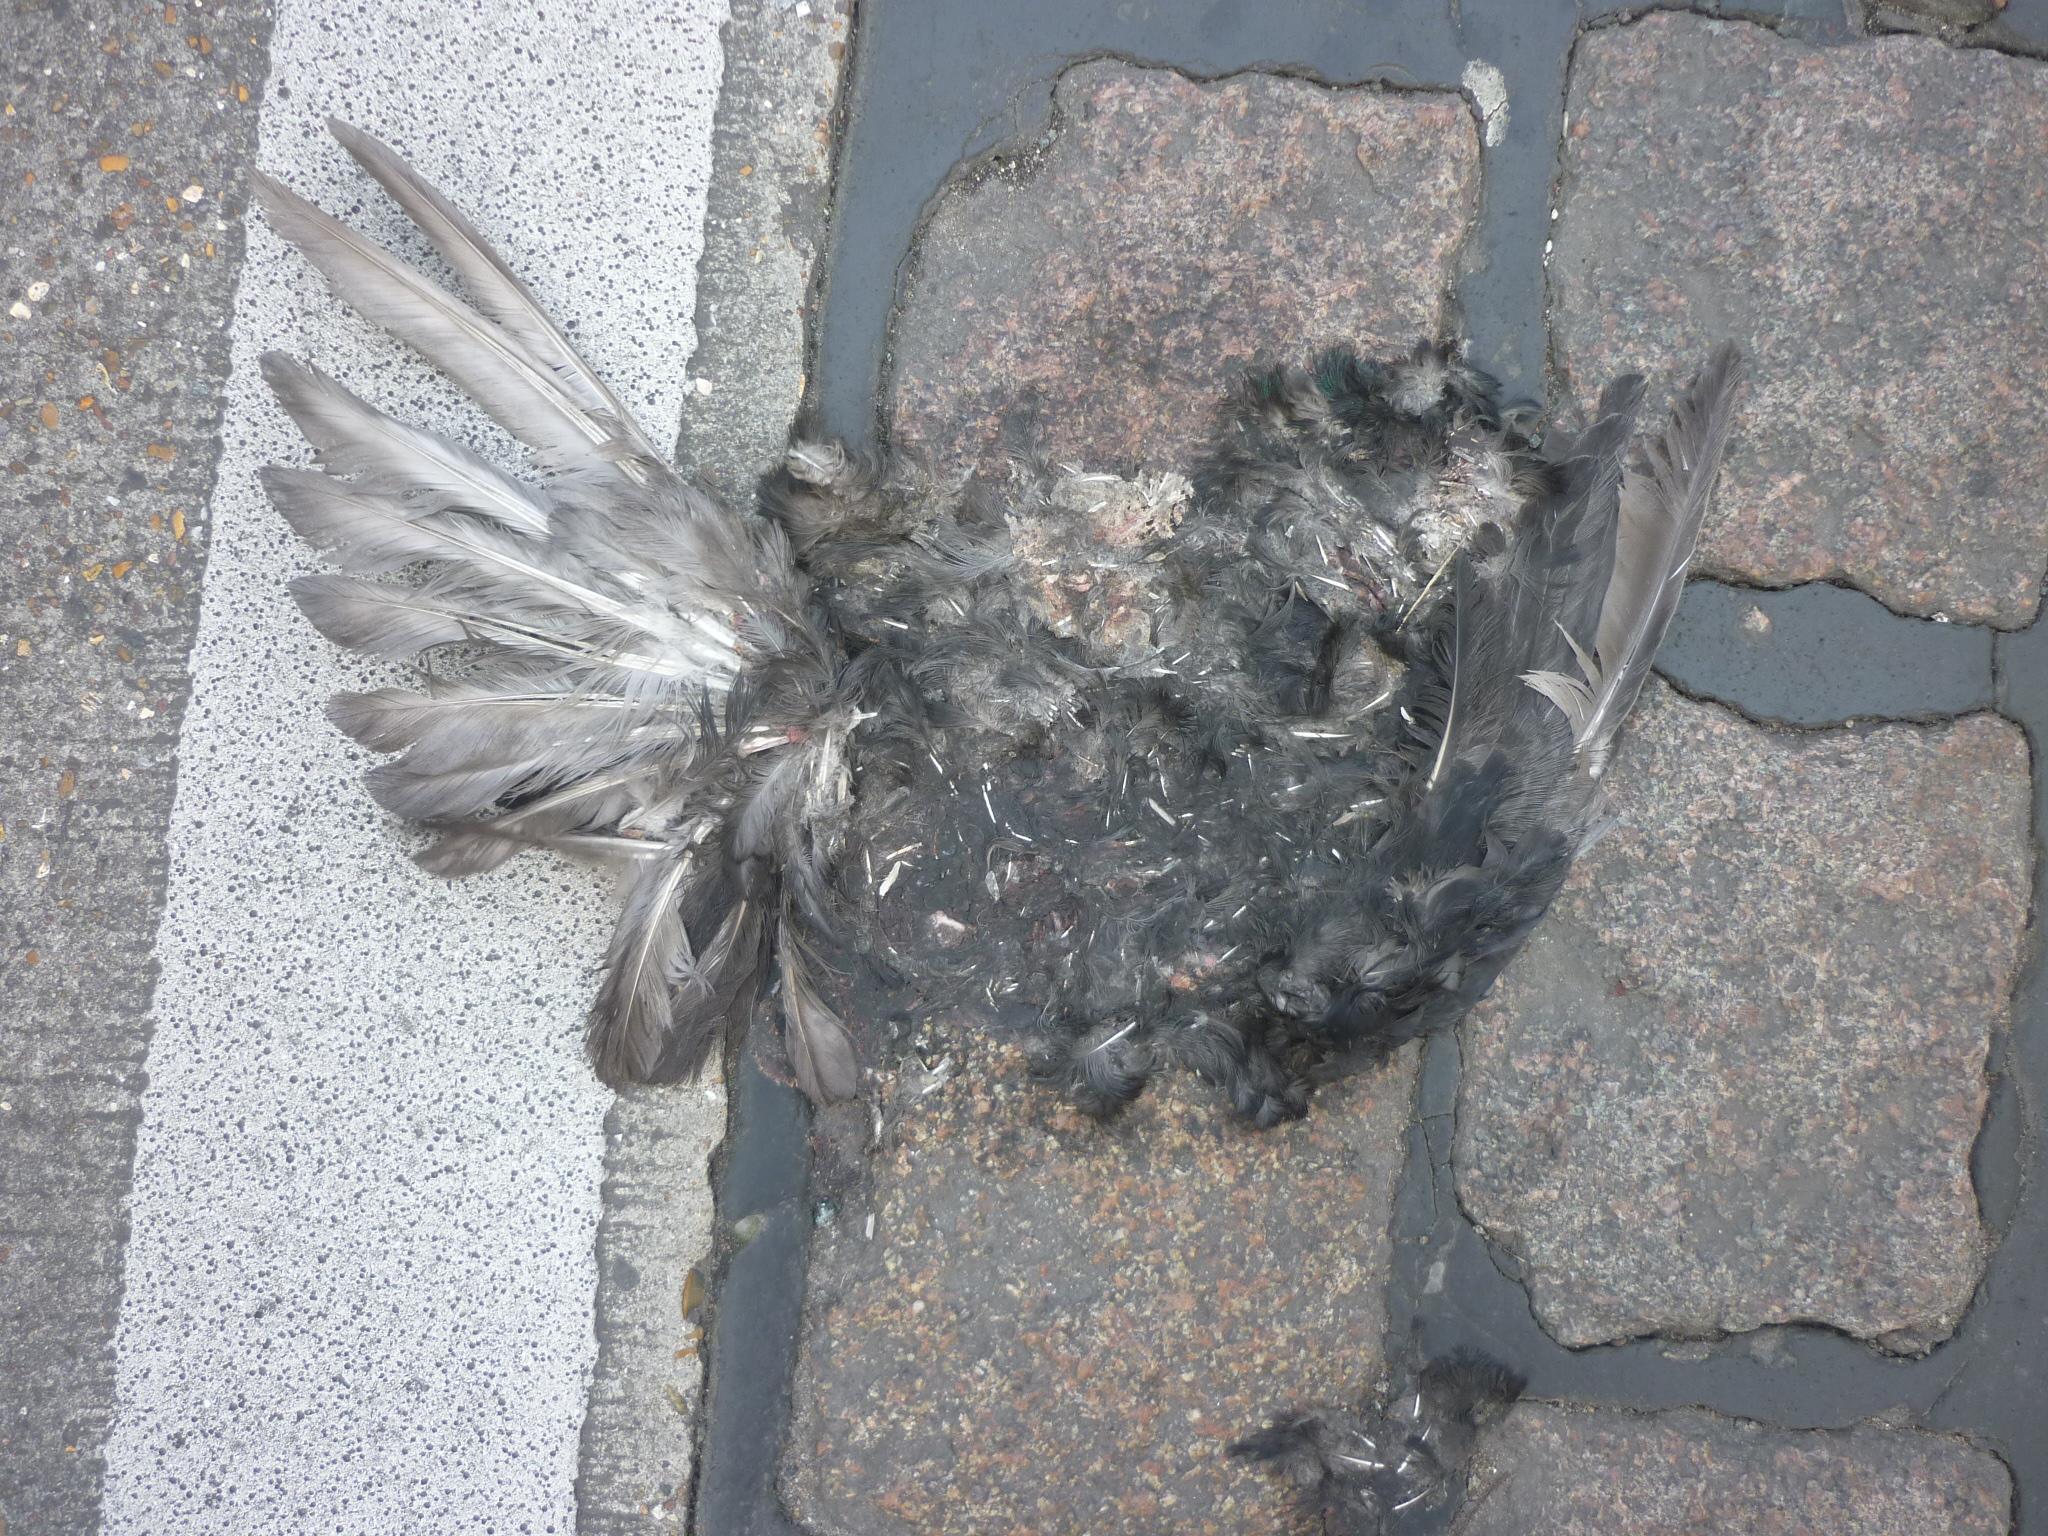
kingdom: Animalia
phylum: Chordata
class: Aves
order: Columbiformes
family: Columbidae
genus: Columba
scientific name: Columba livia
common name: Rock pigeon
